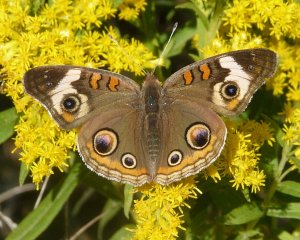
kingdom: Animalia
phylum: Arthropoda
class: Insecta
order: Lepidoptera
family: Nymphalidae
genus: Junonia
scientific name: Junonia coenia
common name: Common Buckeye
